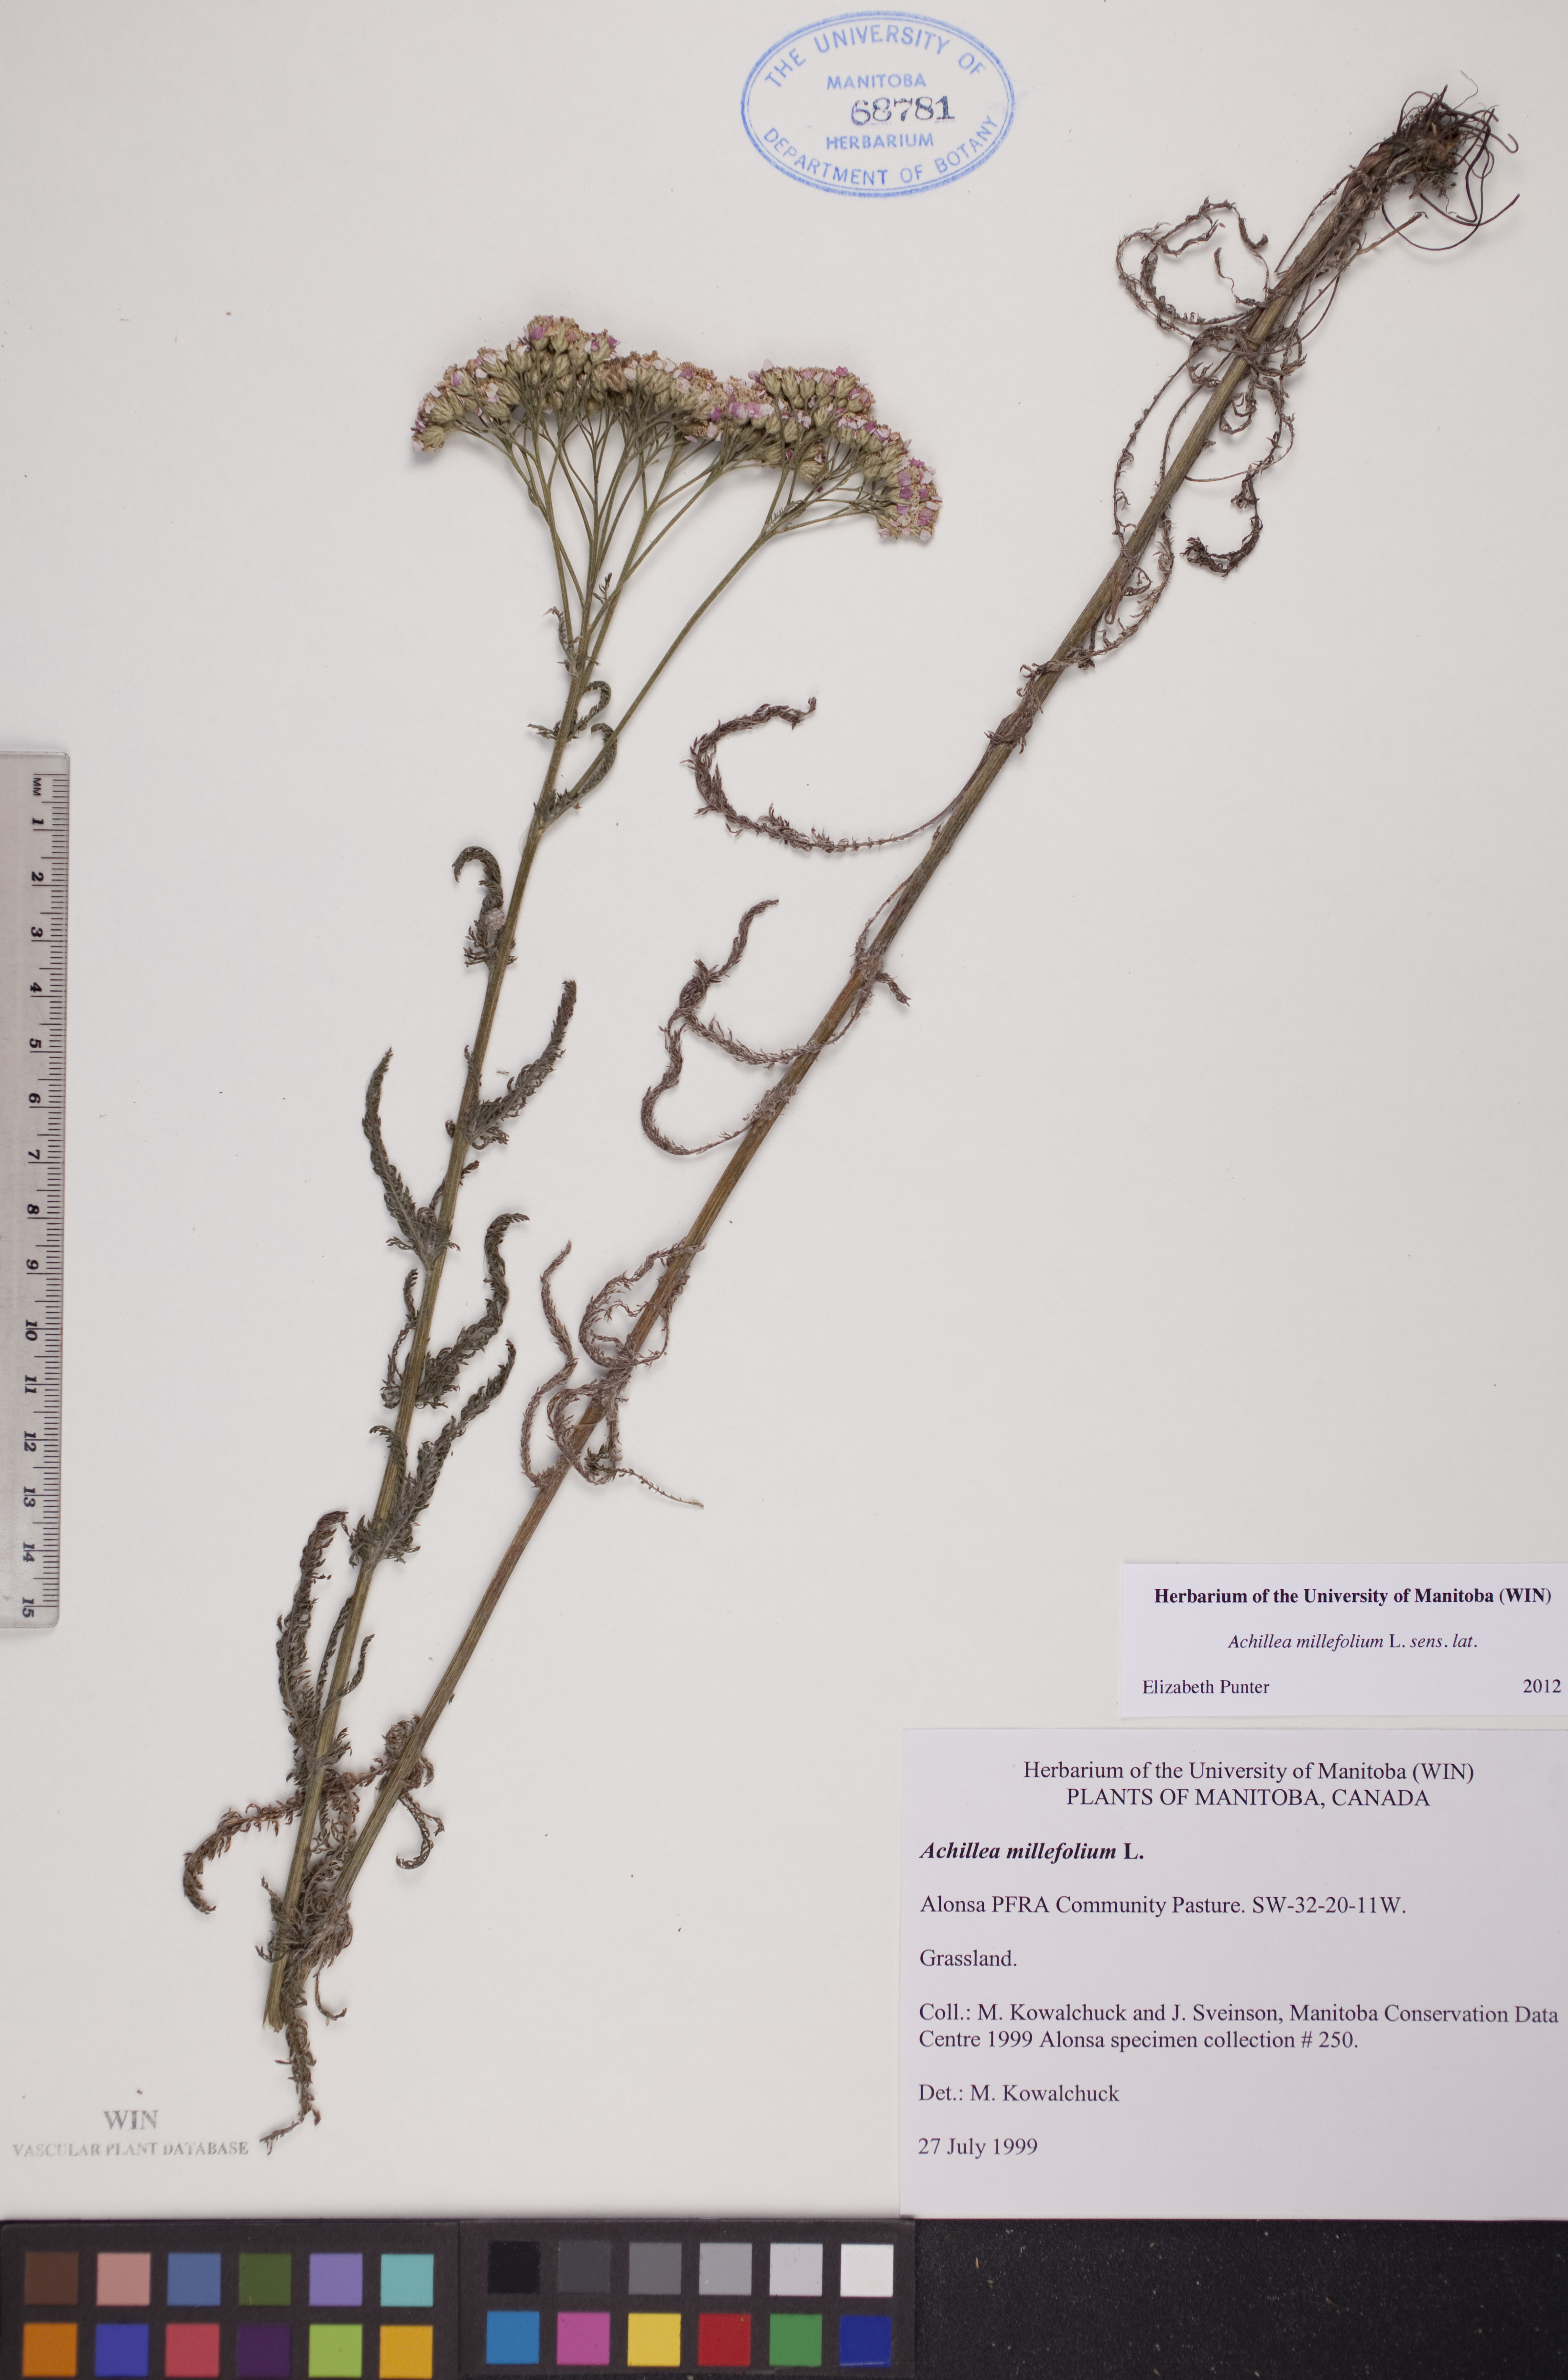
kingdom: Plantae
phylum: Tracheophyta
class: Magnoliopsida
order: Asterales
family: Asteraceae
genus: Achillea
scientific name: Achillea millefolium
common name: Yarrow
